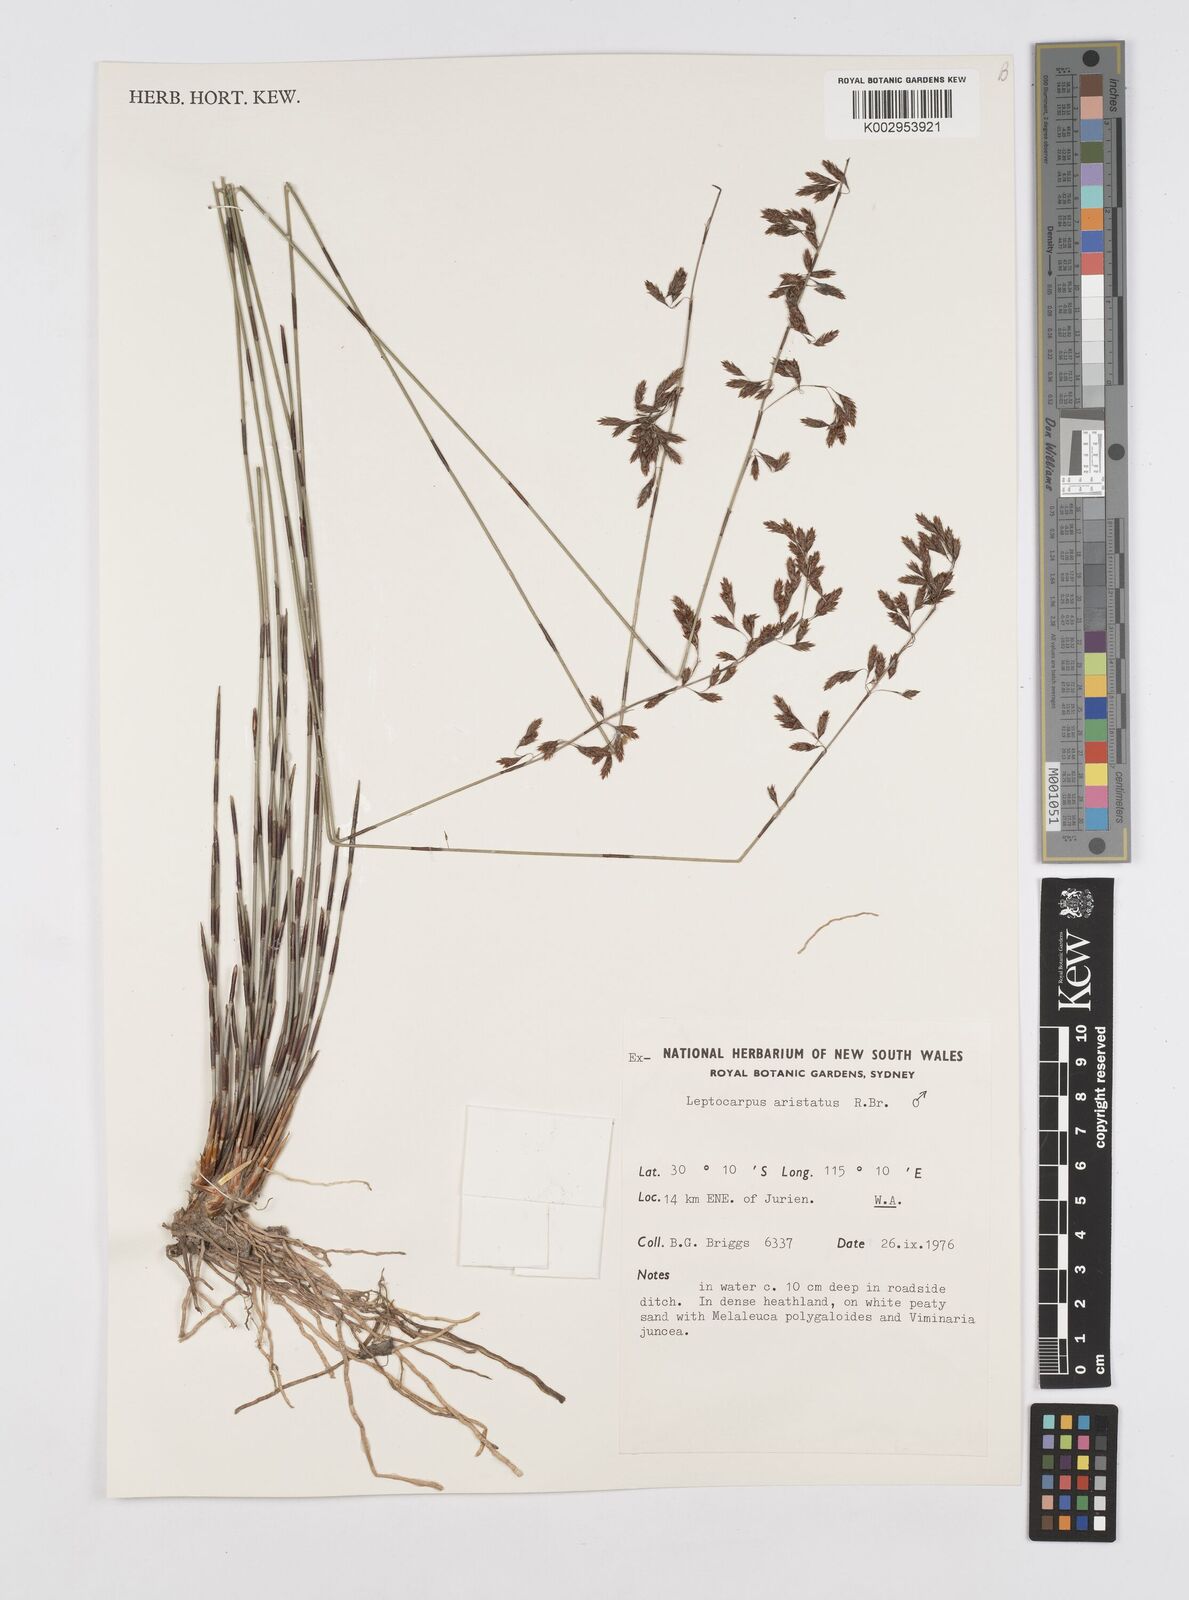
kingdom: Plantae
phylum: Tracheophyta
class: Liliopsida
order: Poales
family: Restionaceae
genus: Chaetanthus
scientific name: Chaetanthus aristatus
